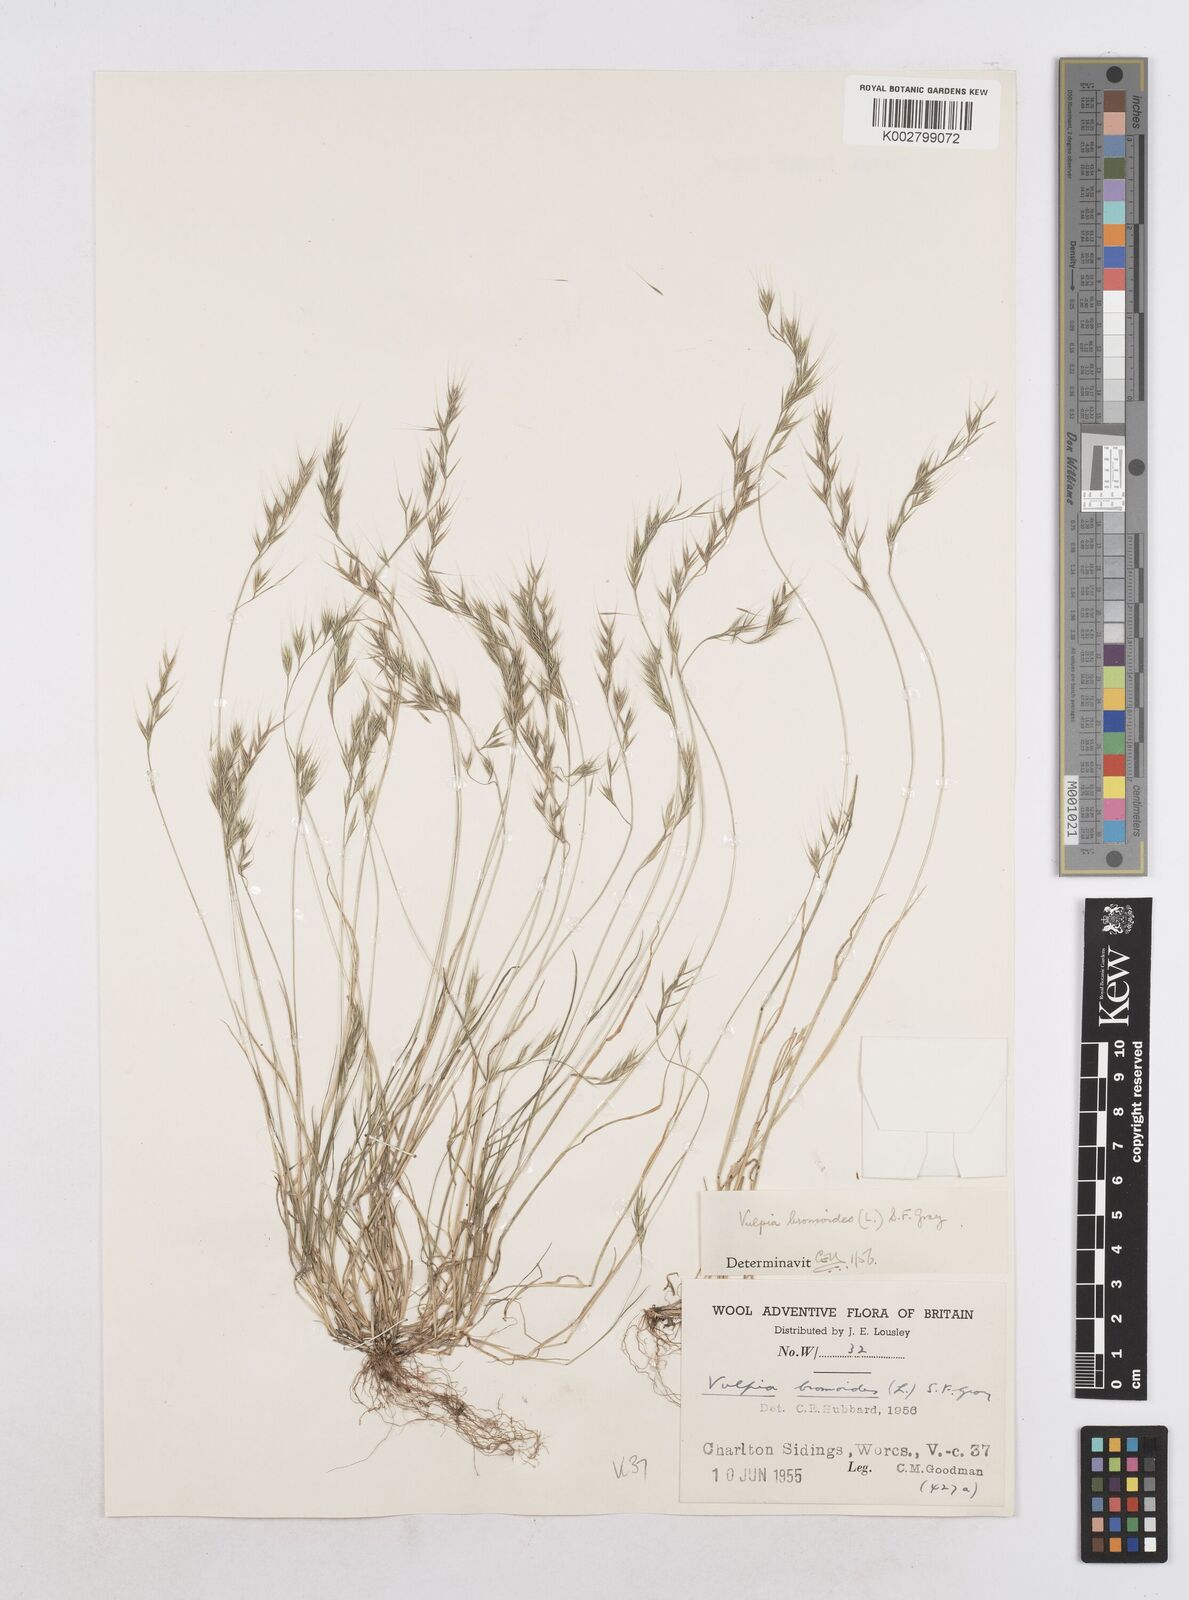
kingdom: Plantae
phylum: Tracheophyta
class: Liliopsida
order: Poales
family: Poaceae
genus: Festuca
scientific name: Festuca bromoides
